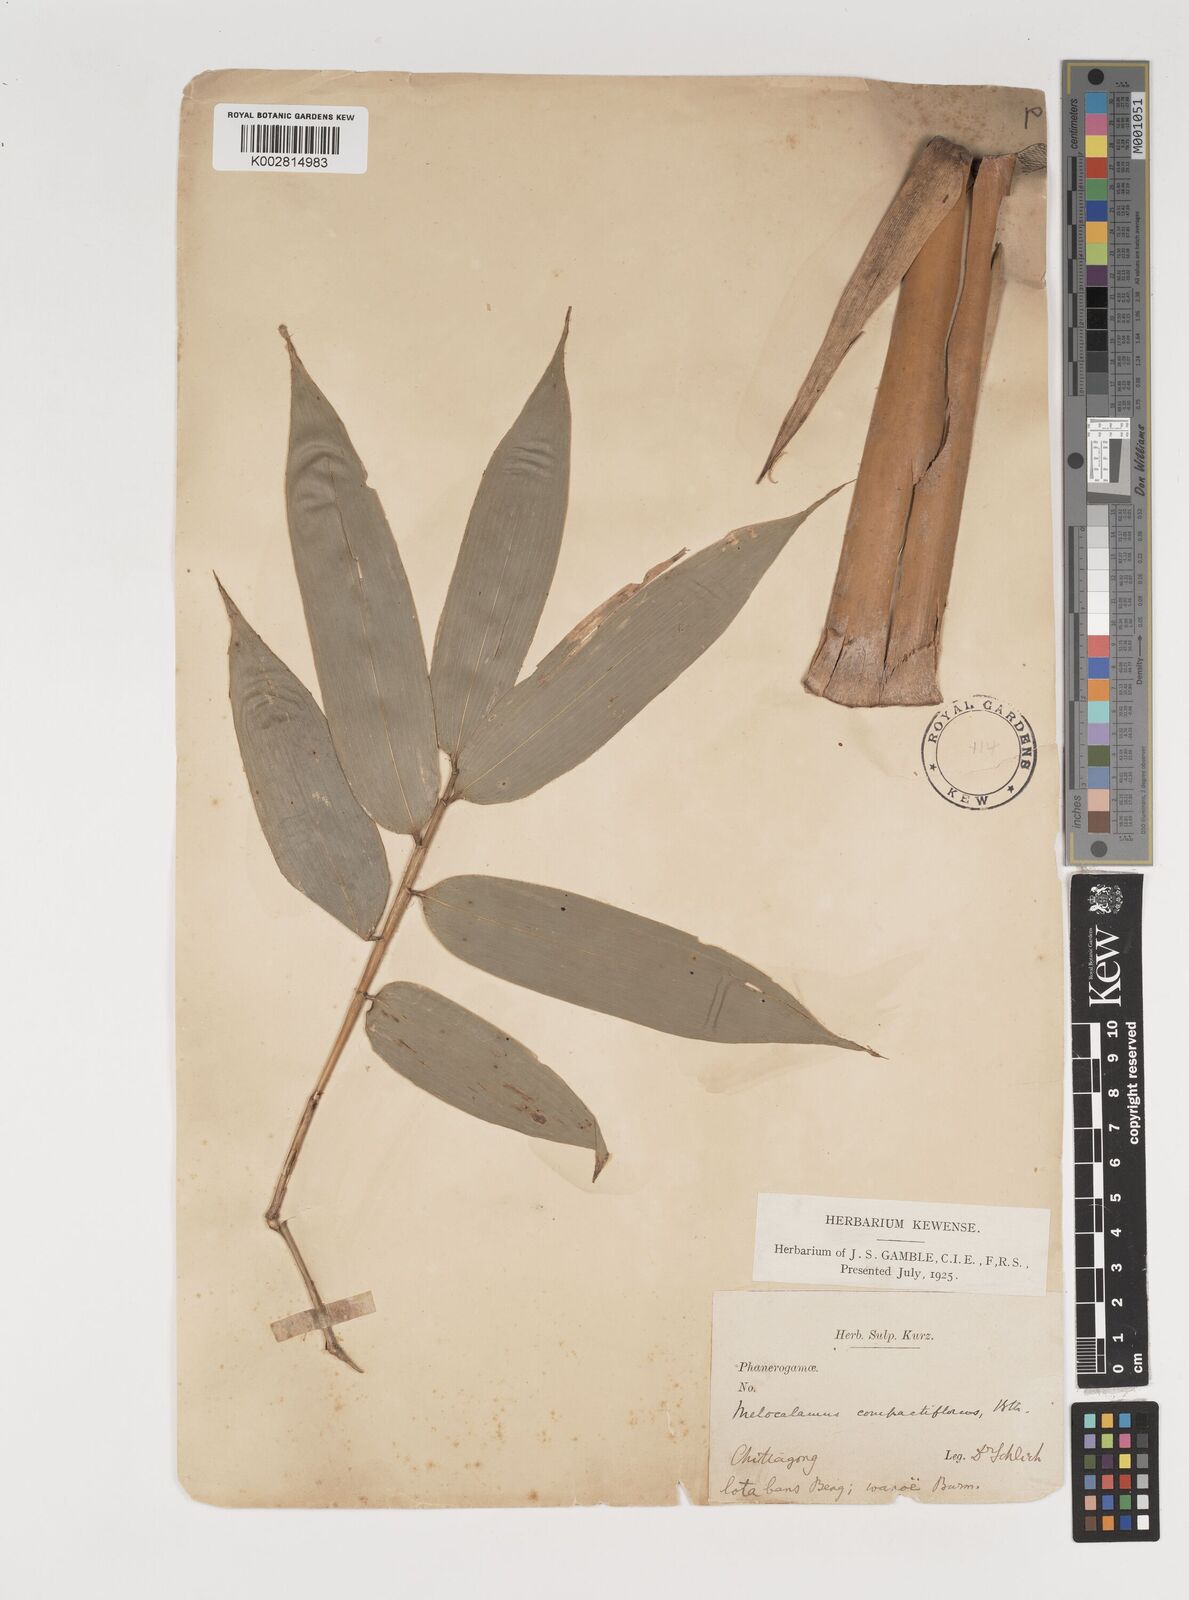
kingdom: Plantae
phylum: Tracheophyta
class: Liliopsida
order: Poales
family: Poaceae
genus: Melocalamus
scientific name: Melocalamus compactiflorus
